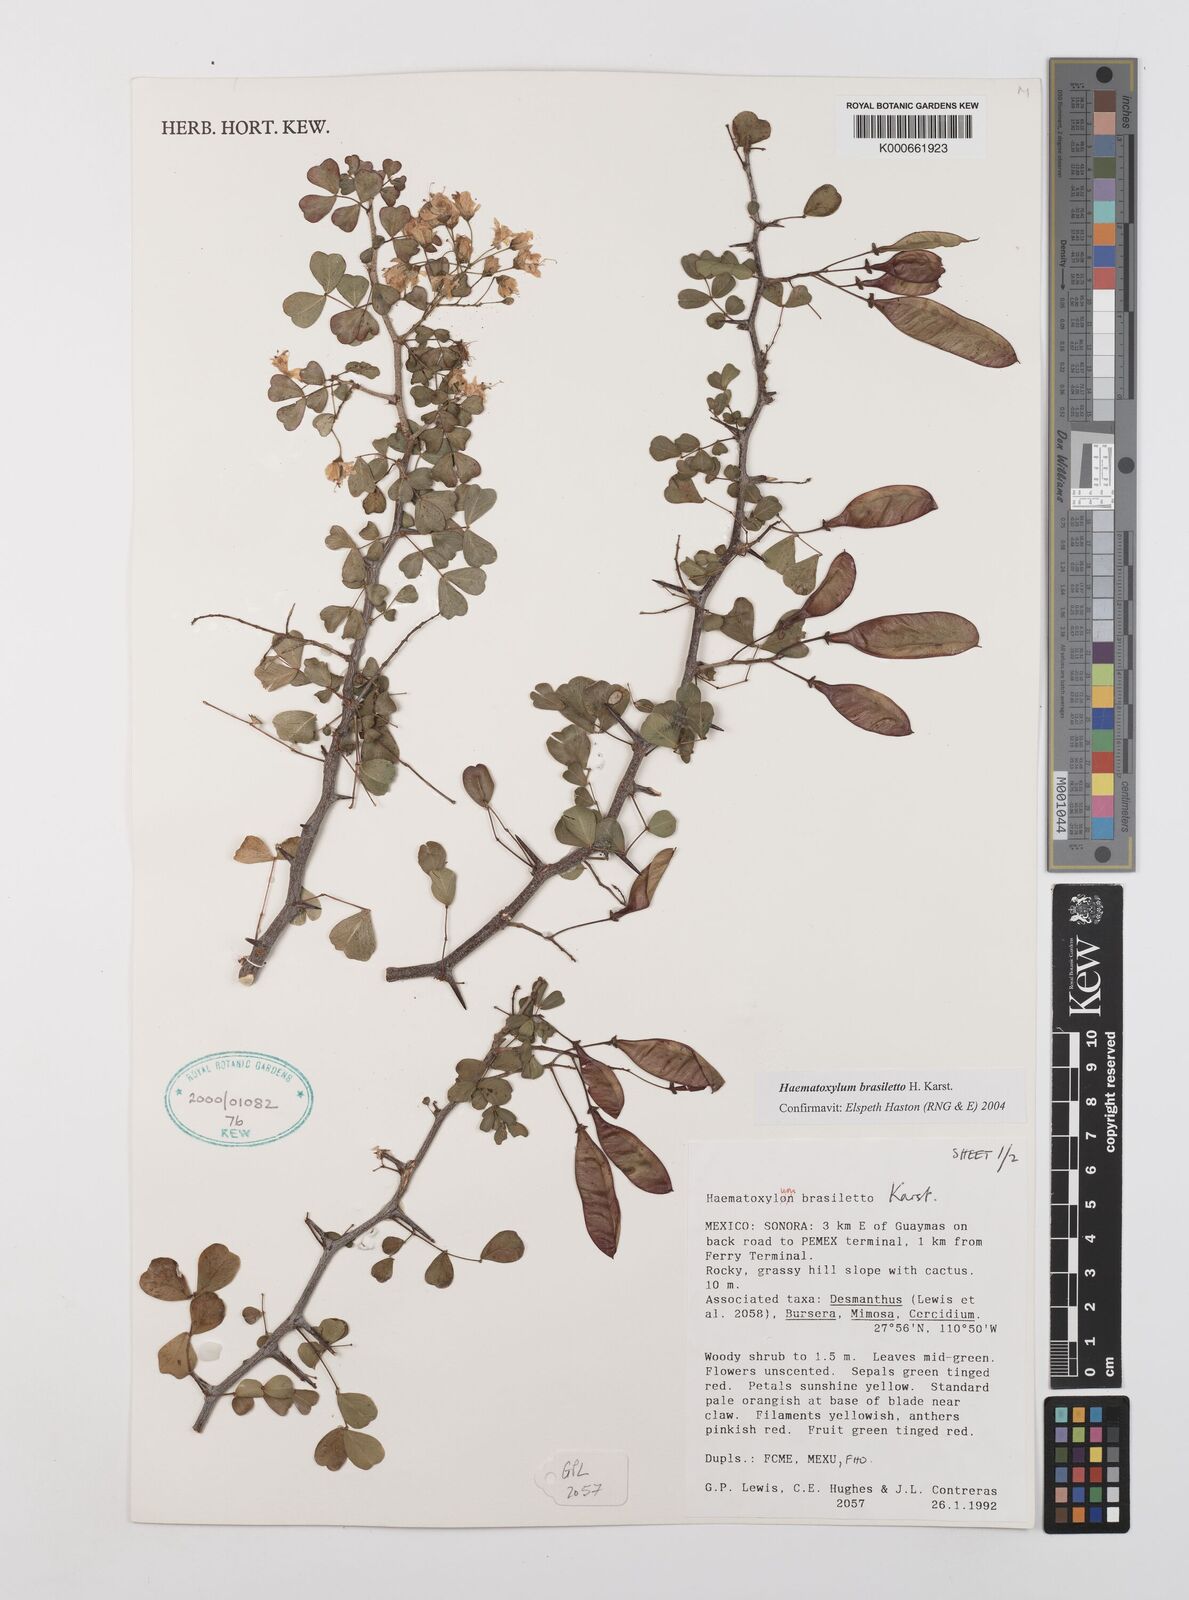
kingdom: Plantae
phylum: Tracheophyta
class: Magnoliopsida
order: Fabales
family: Fabaceae
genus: Haematoxylum
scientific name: Haematoxylum brasiletto
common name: Peachwood
